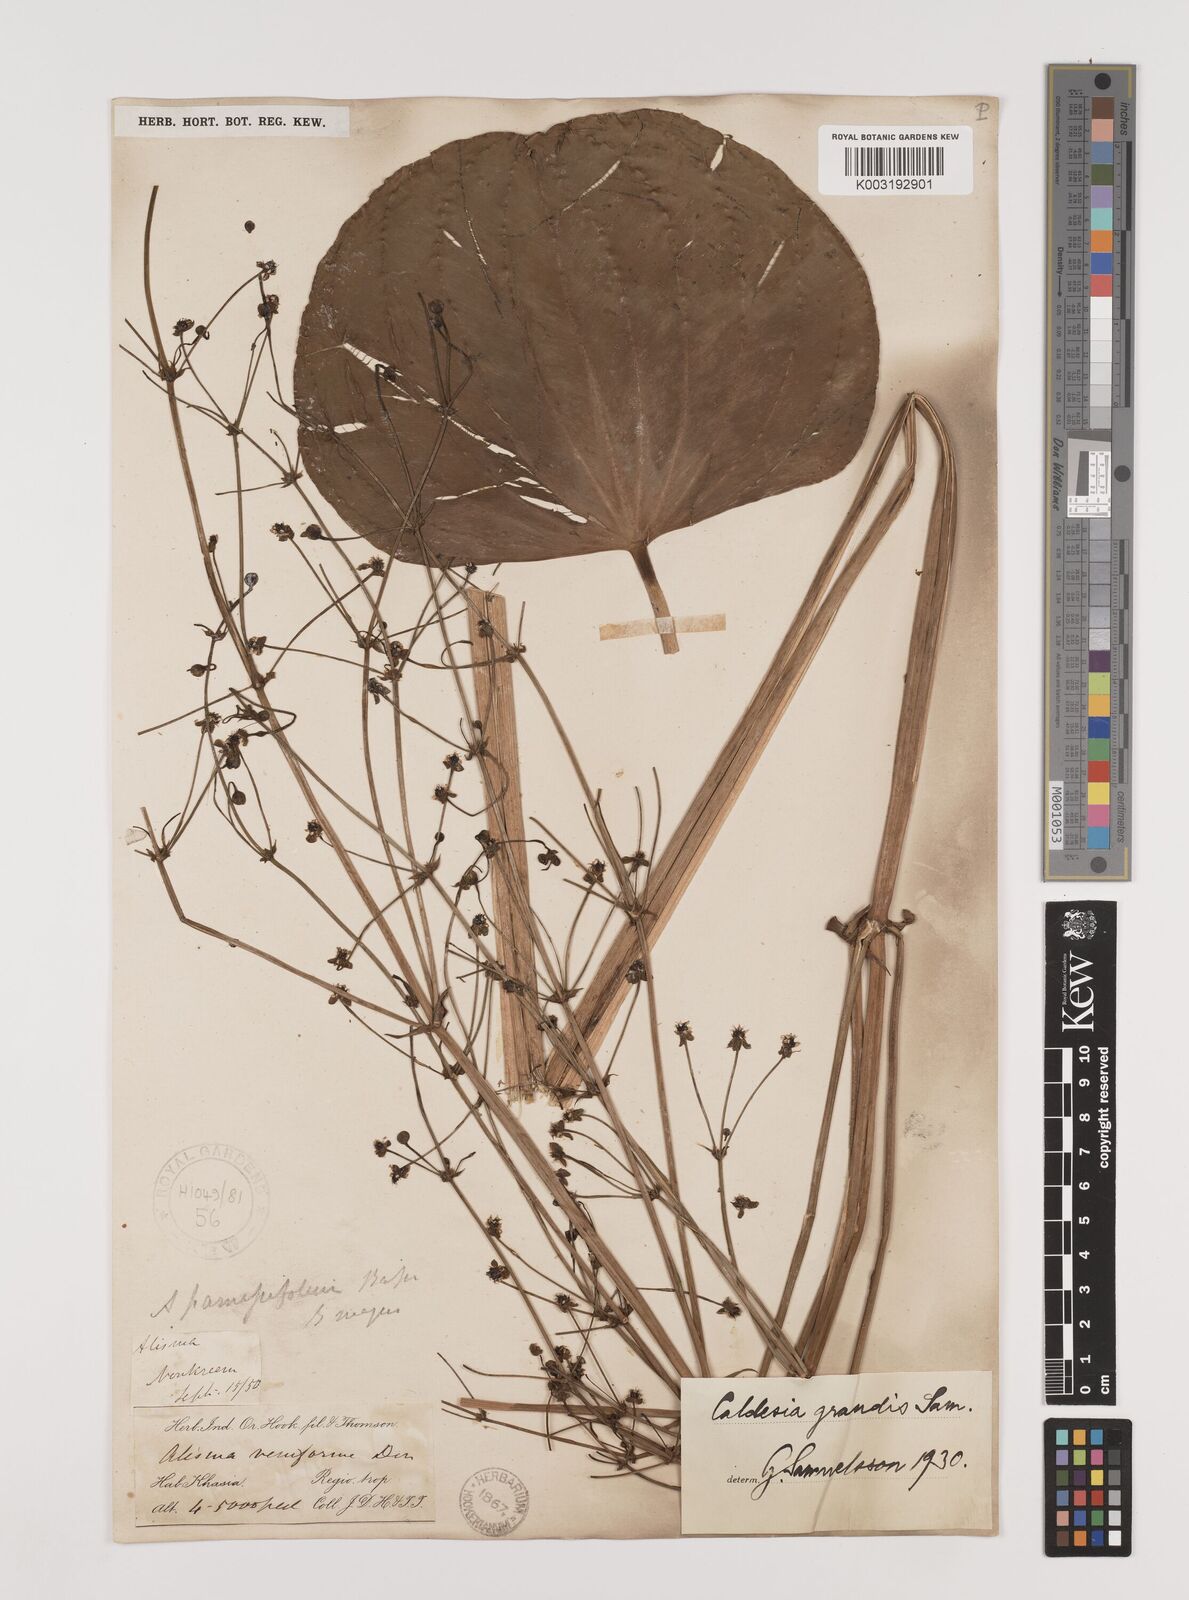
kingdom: Plantae
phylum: Tracheophyta
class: Liliopsida
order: Alismatales
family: Alismataceae
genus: Caldesia
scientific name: Caldesia grandis
